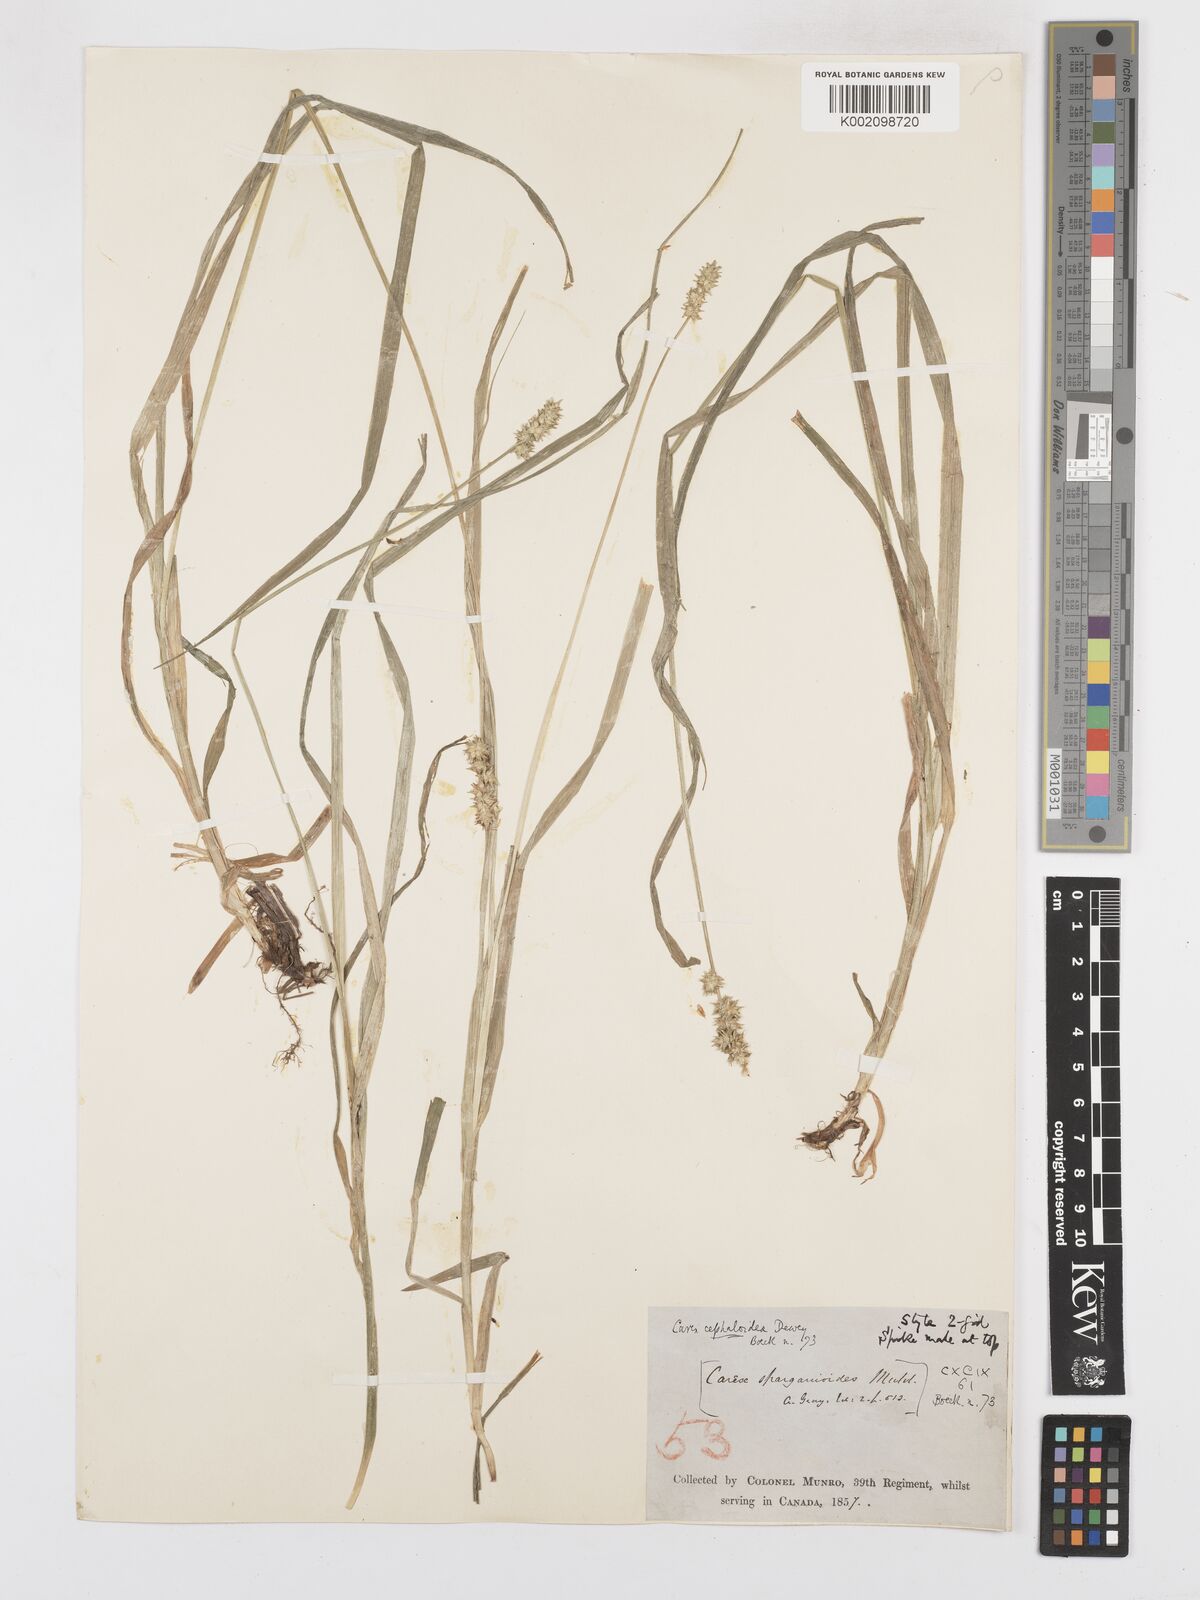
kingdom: Plantae
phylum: Tracheophyta
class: Liliopsida
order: Poales
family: Cyperaceae
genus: Carex
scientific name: Carex cephaloidea
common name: Thin-leaved sedge
